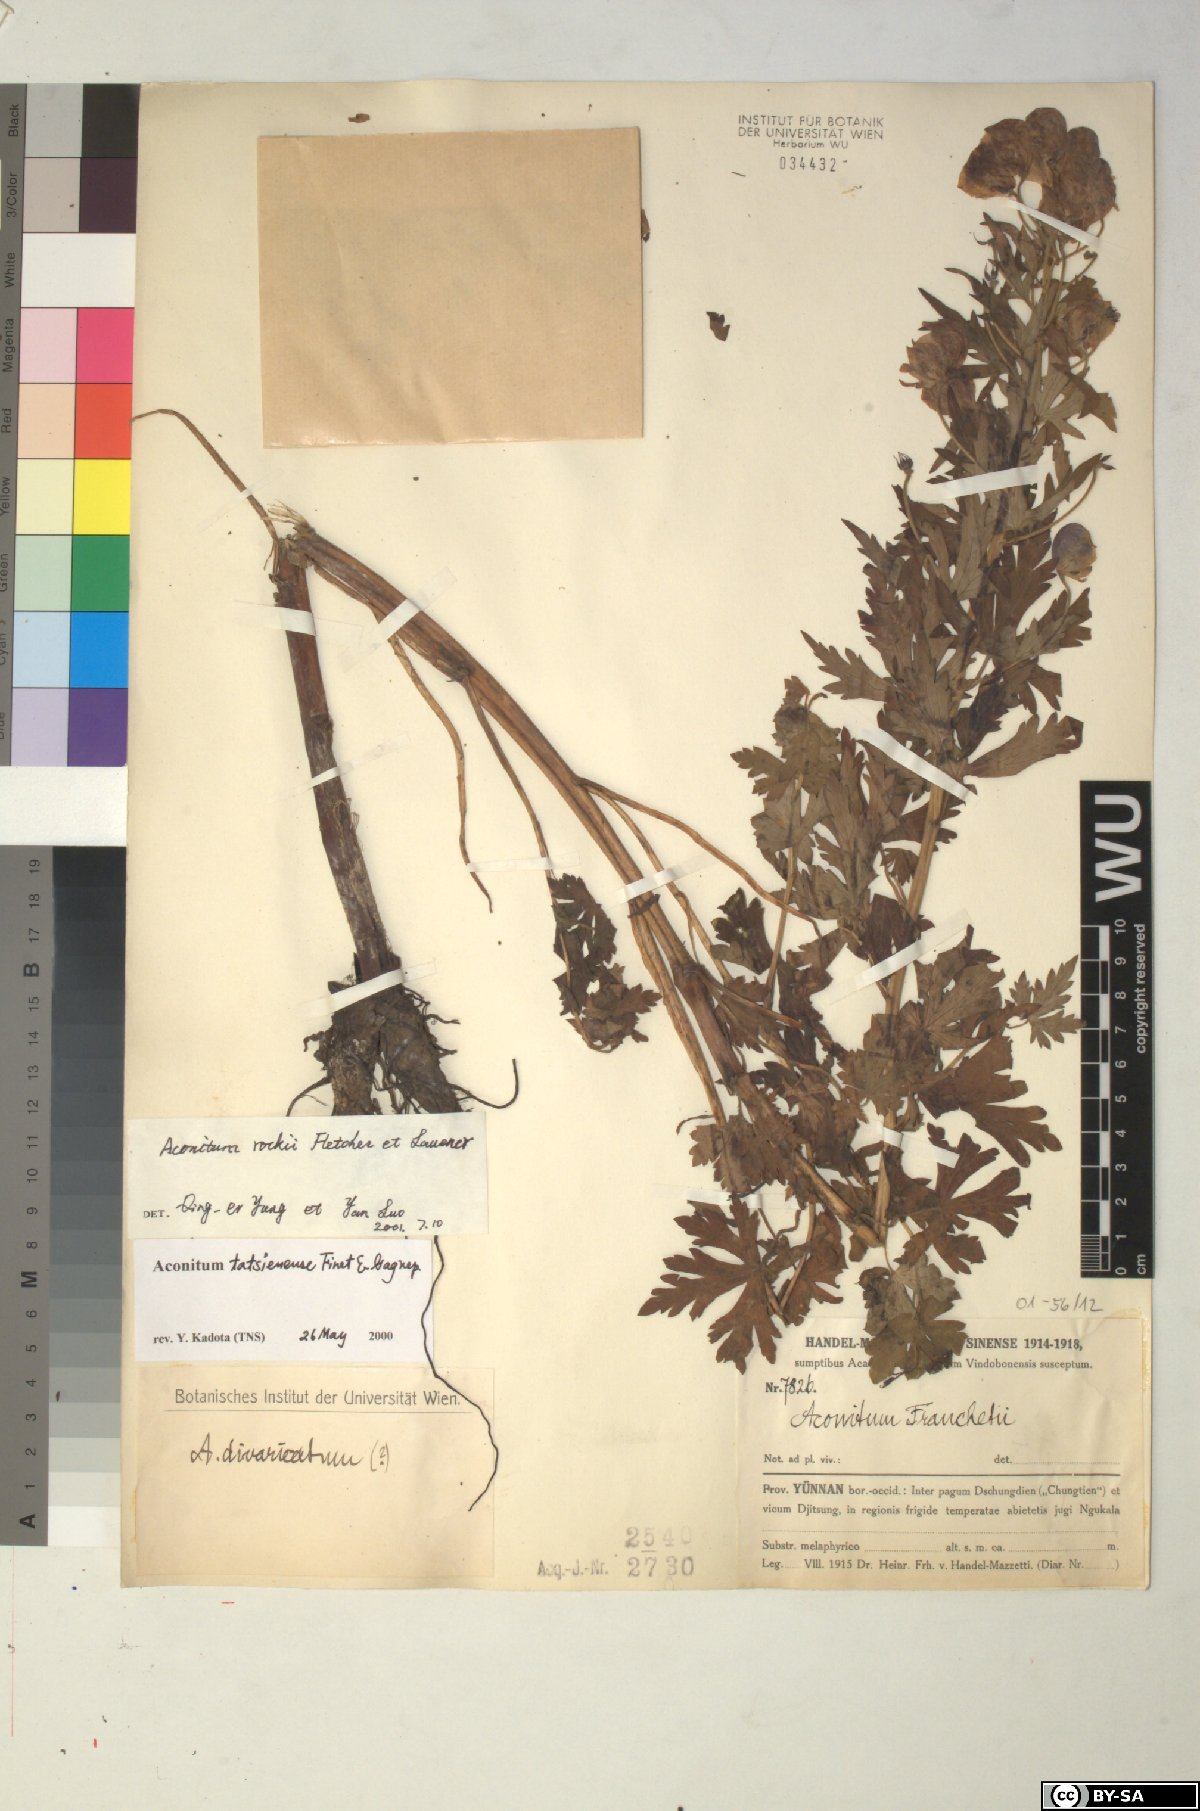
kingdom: Plantae
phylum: Tracheophyta
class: Magnoliopsida
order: Ranunculales
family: Ranunculaceae
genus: Aconitum
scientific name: Aconitum rockii
